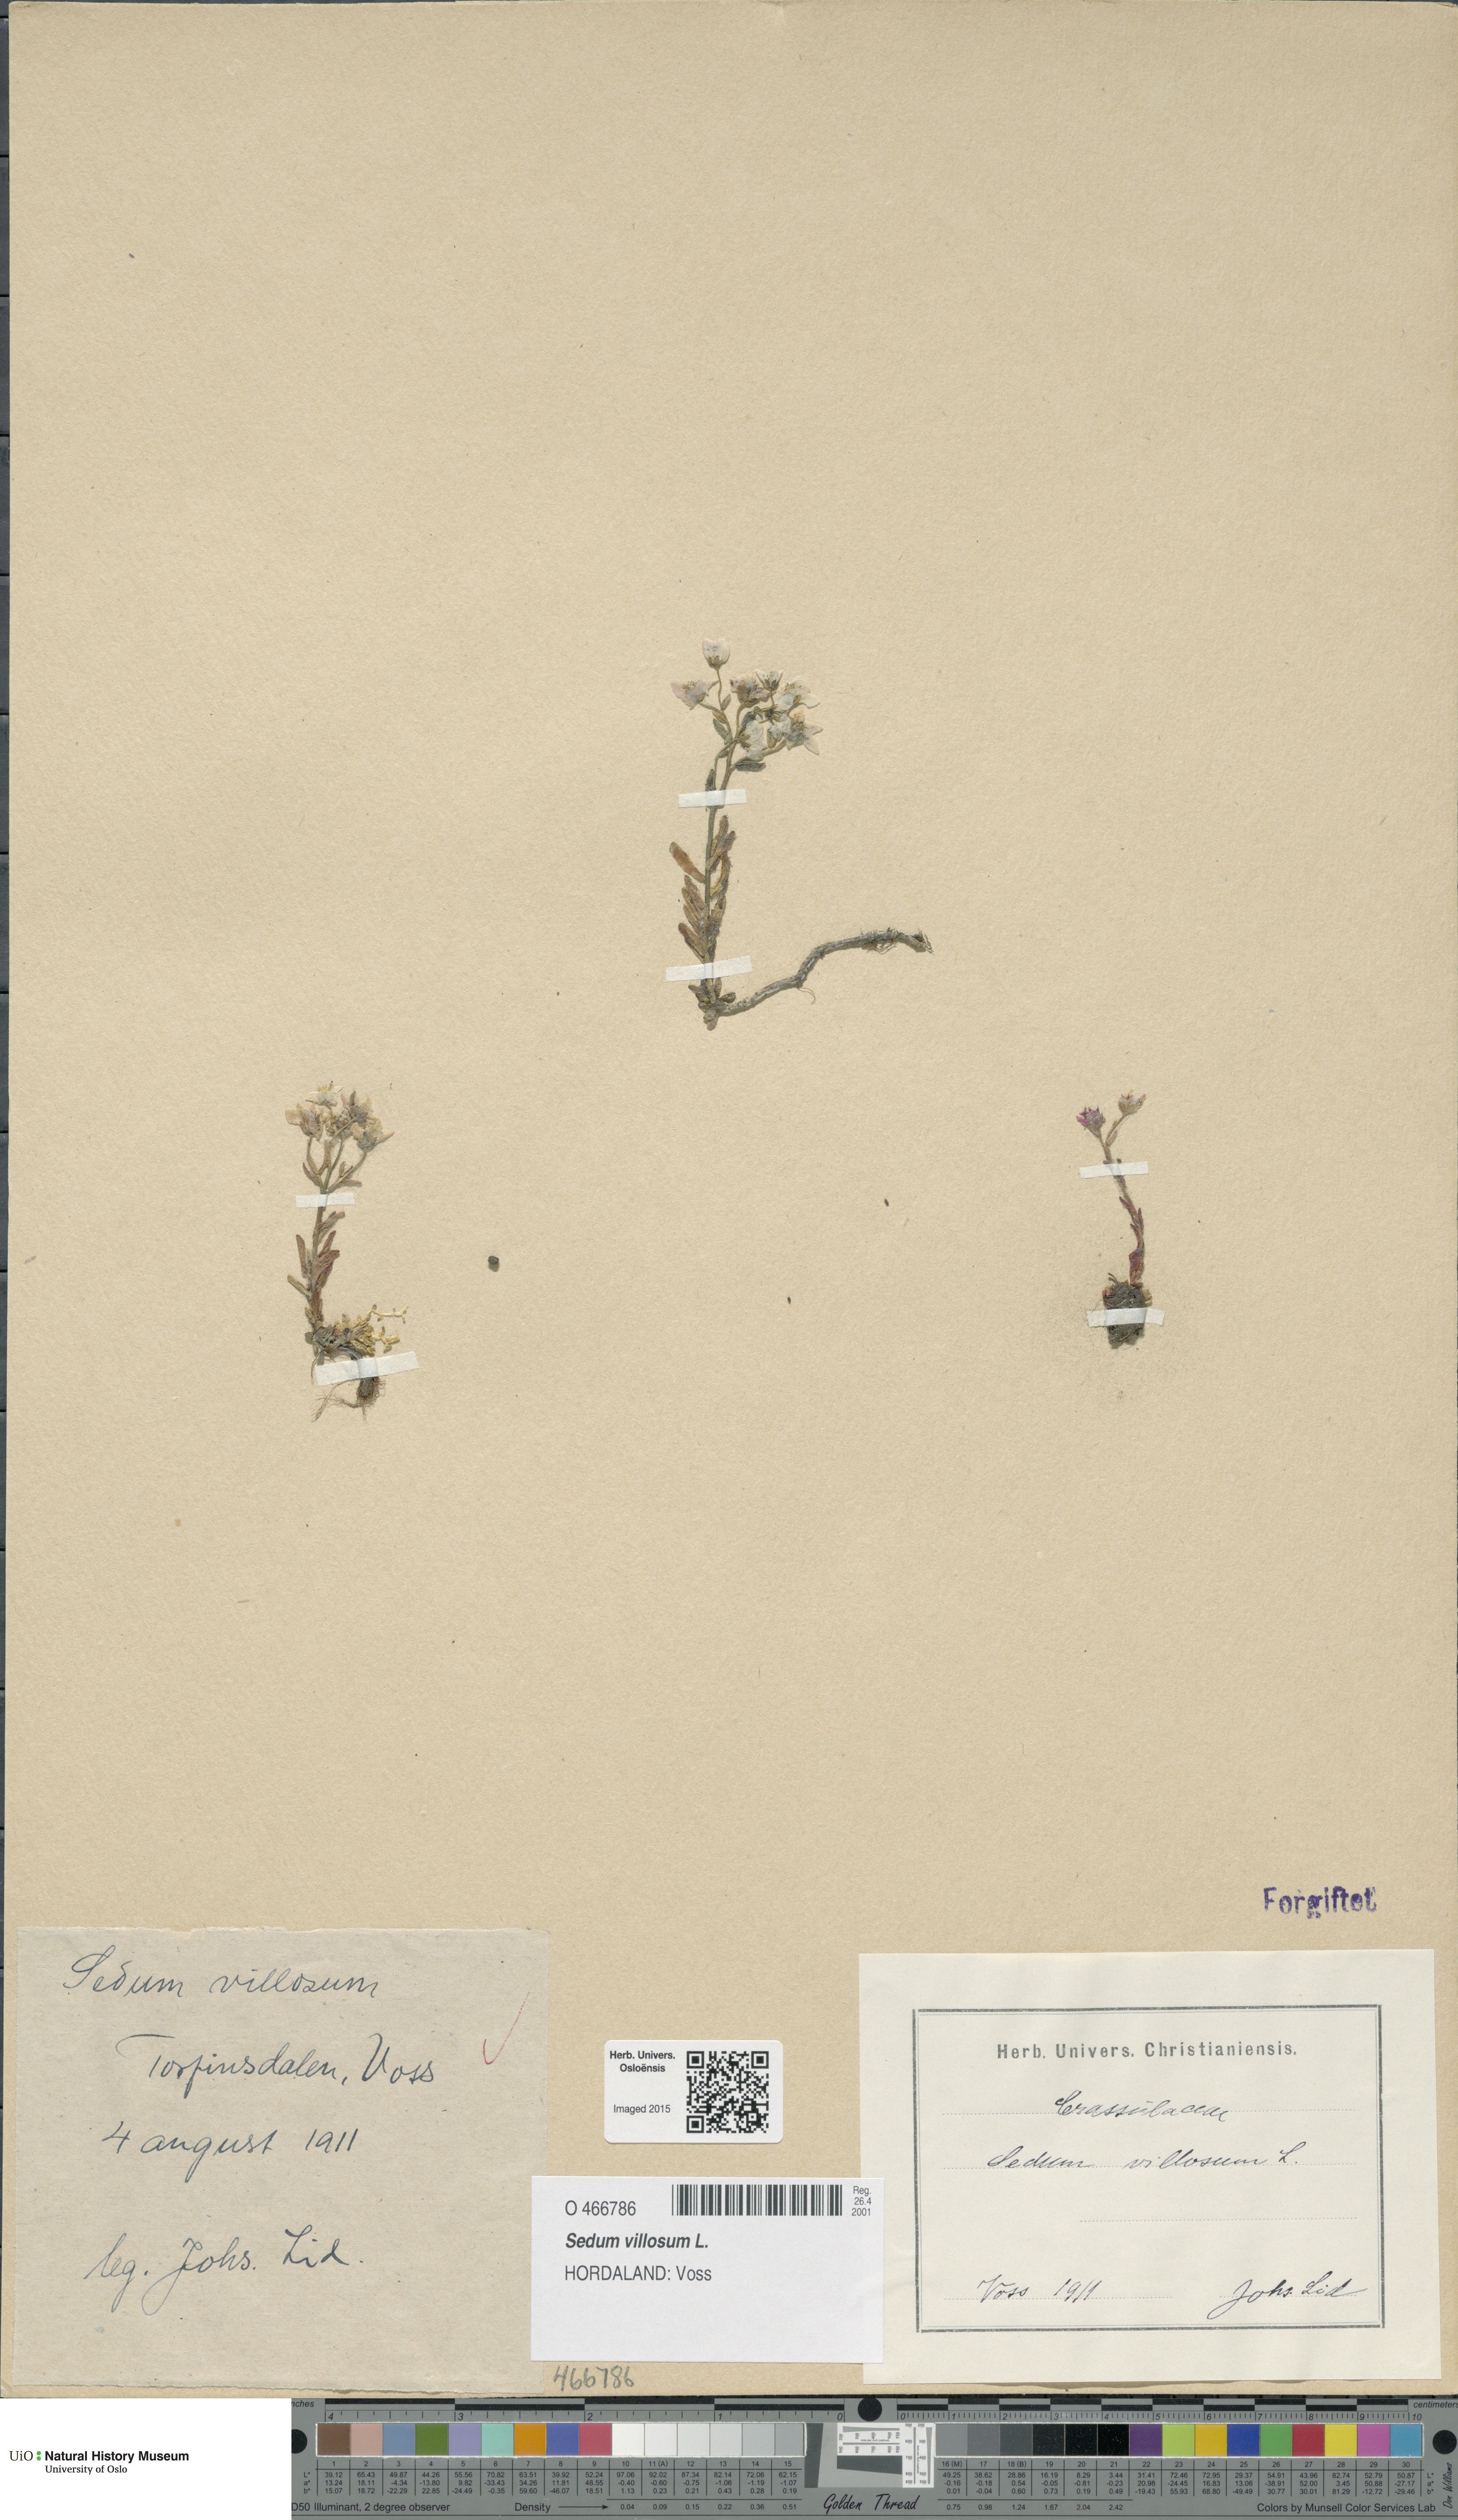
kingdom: Plantae
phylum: Tracheophyta
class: Magnoliopsida
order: Saxifragales
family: Crassulaceae
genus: Sedum
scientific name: Sedum villosum
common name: Hairy stonecrop
